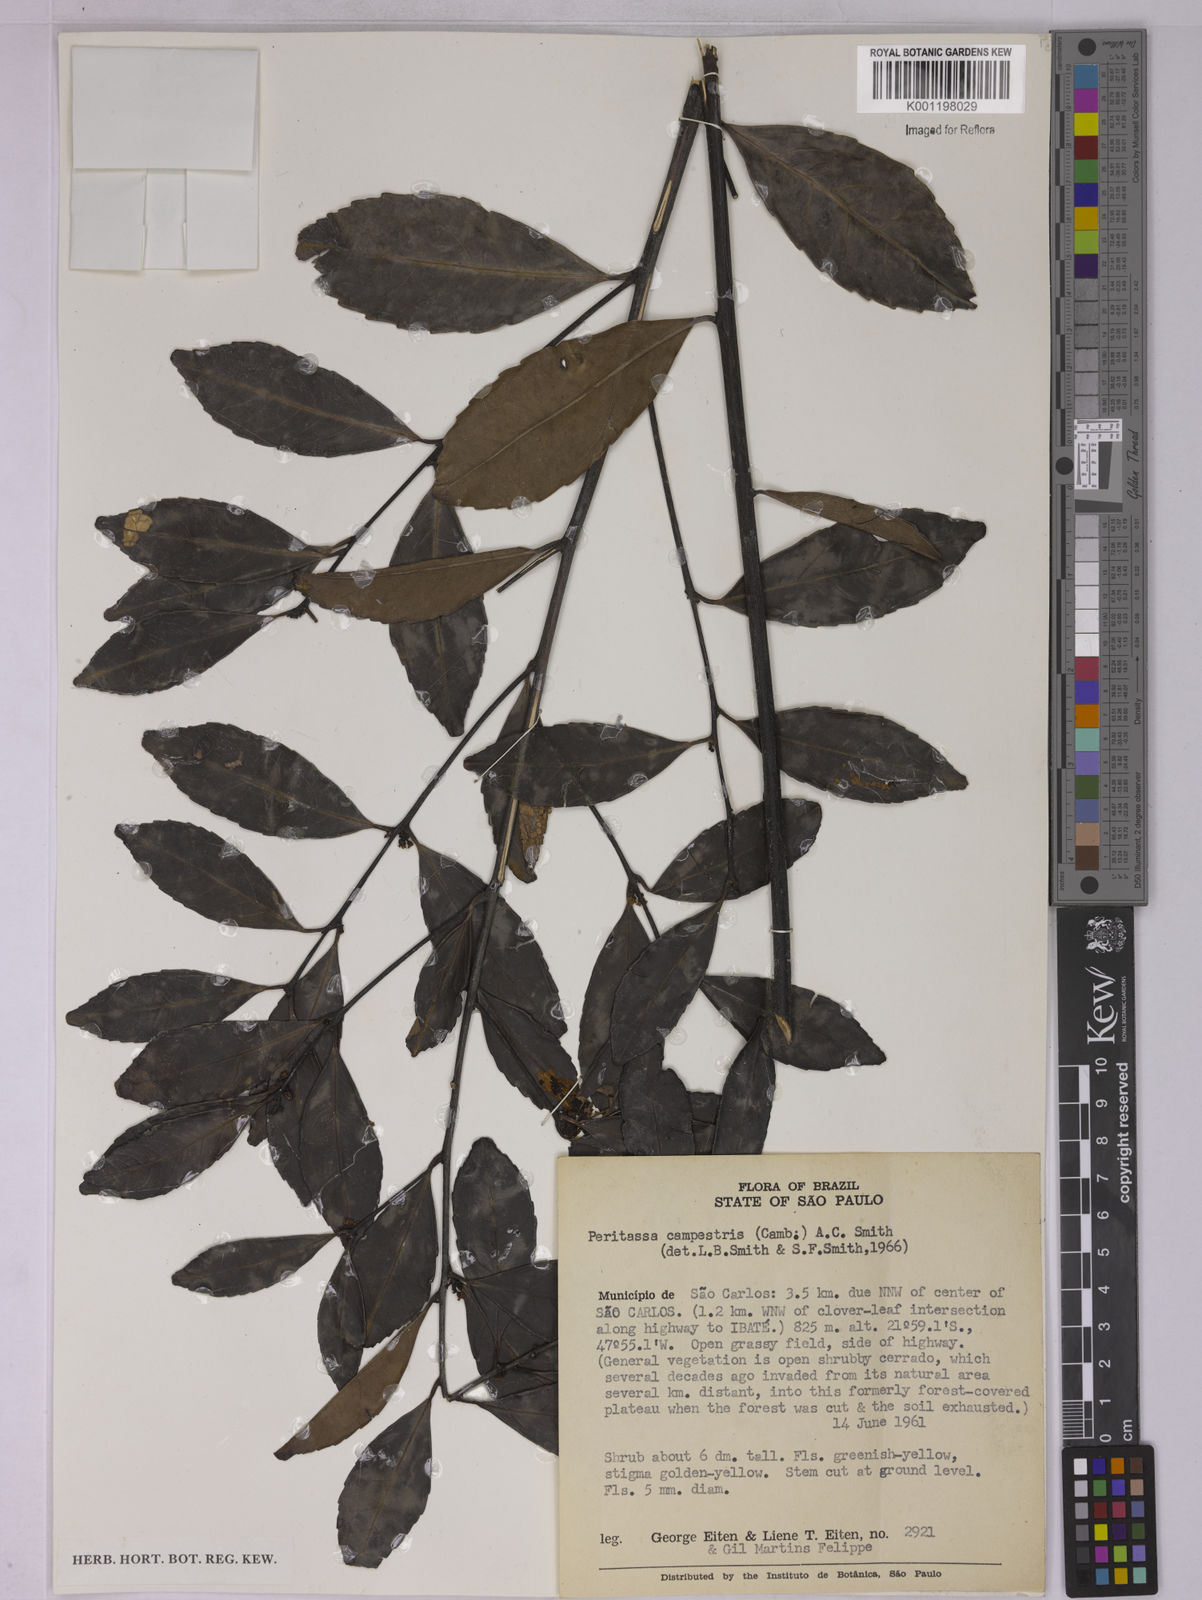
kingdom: Plantae
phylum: Tracheophyta
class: Magnoliopsida
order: Celastrales
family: Celastraceae
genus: Peritassa
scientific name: Peritassa campestris
